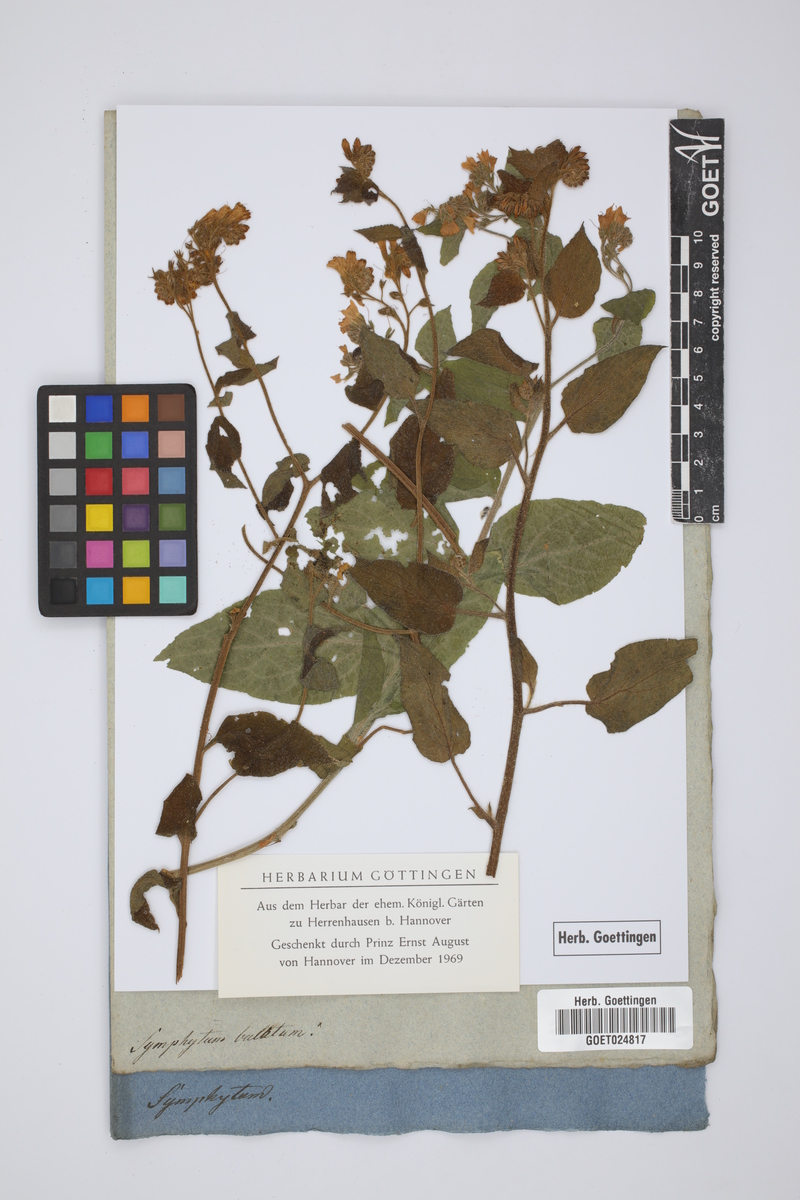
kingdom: Plantae
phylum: Tracheophyta
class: Magnoliopsida
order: Boraginales
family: Boraginaceae
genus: Symphytum
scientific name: Symphytum tauricum
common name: Crimean comfrey
